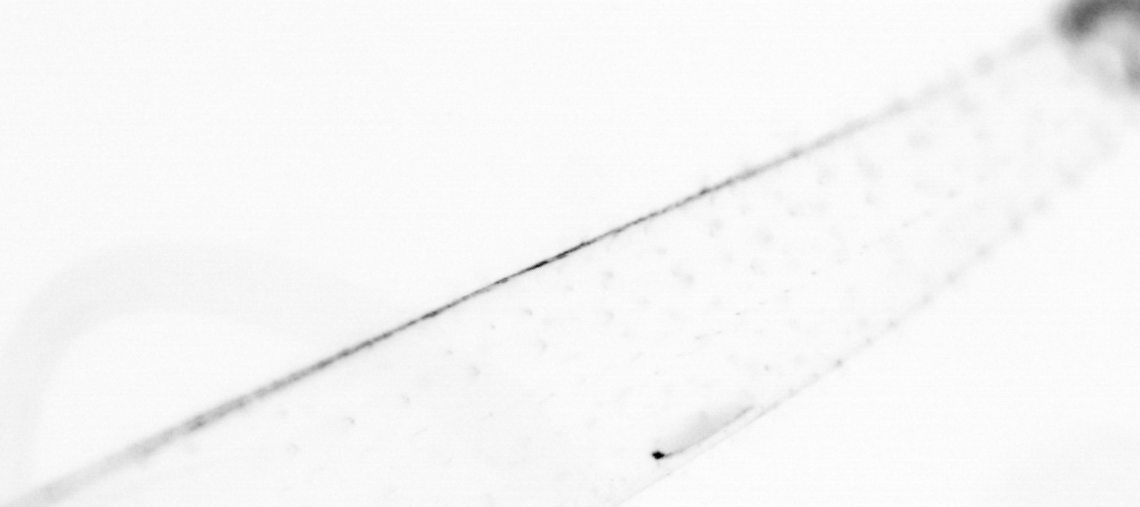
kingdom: Animalia
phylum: Chaetognatha
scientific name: Chaetognatha
